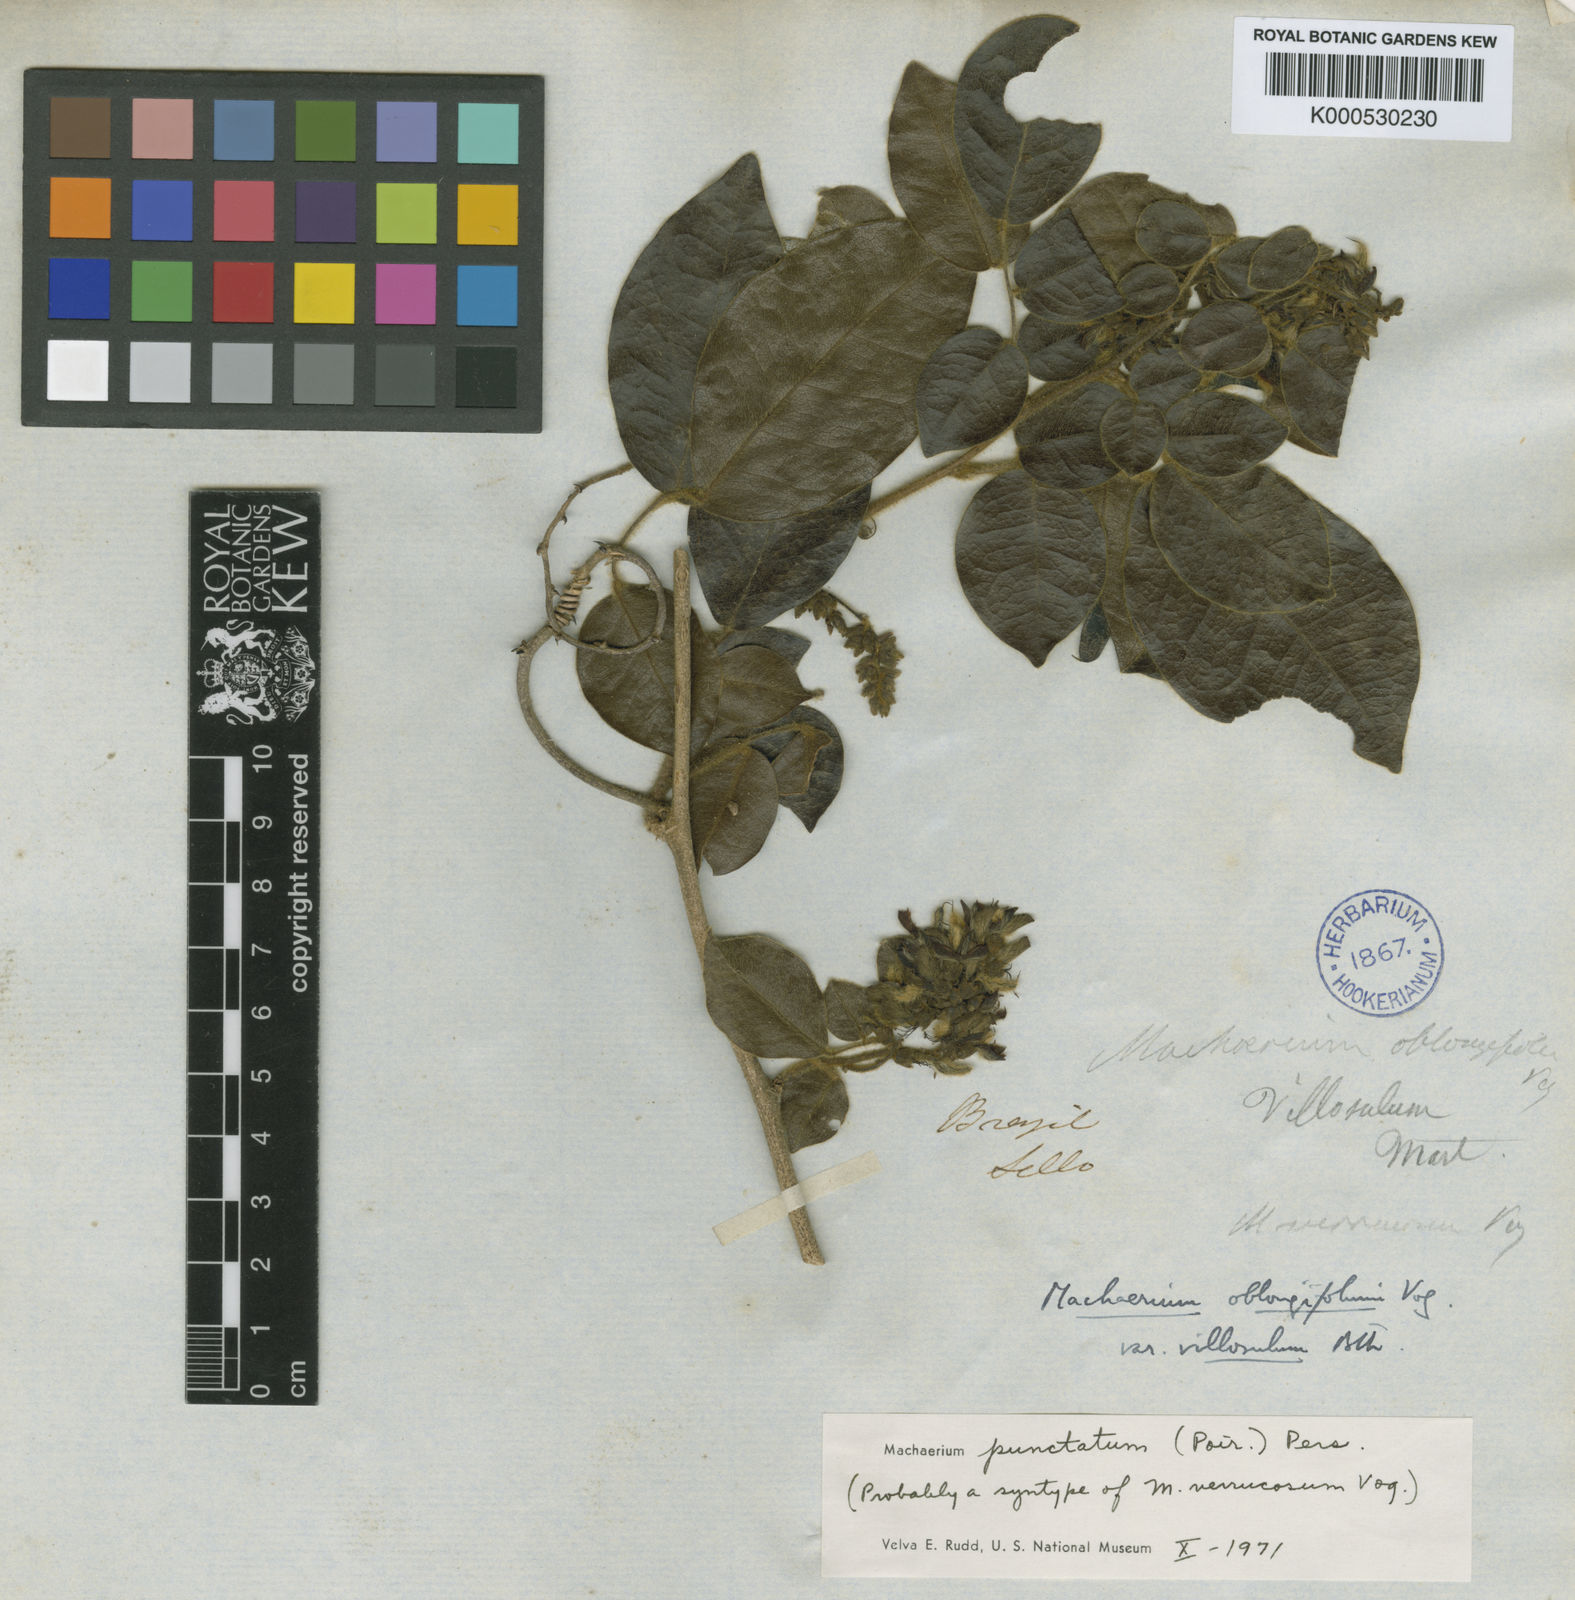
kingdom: Plantae
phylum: Tracheophyta
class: Magnoliopsida
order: Fabales
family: Fabaceae
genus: Machaerium
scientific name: Machaerium stipitatum
